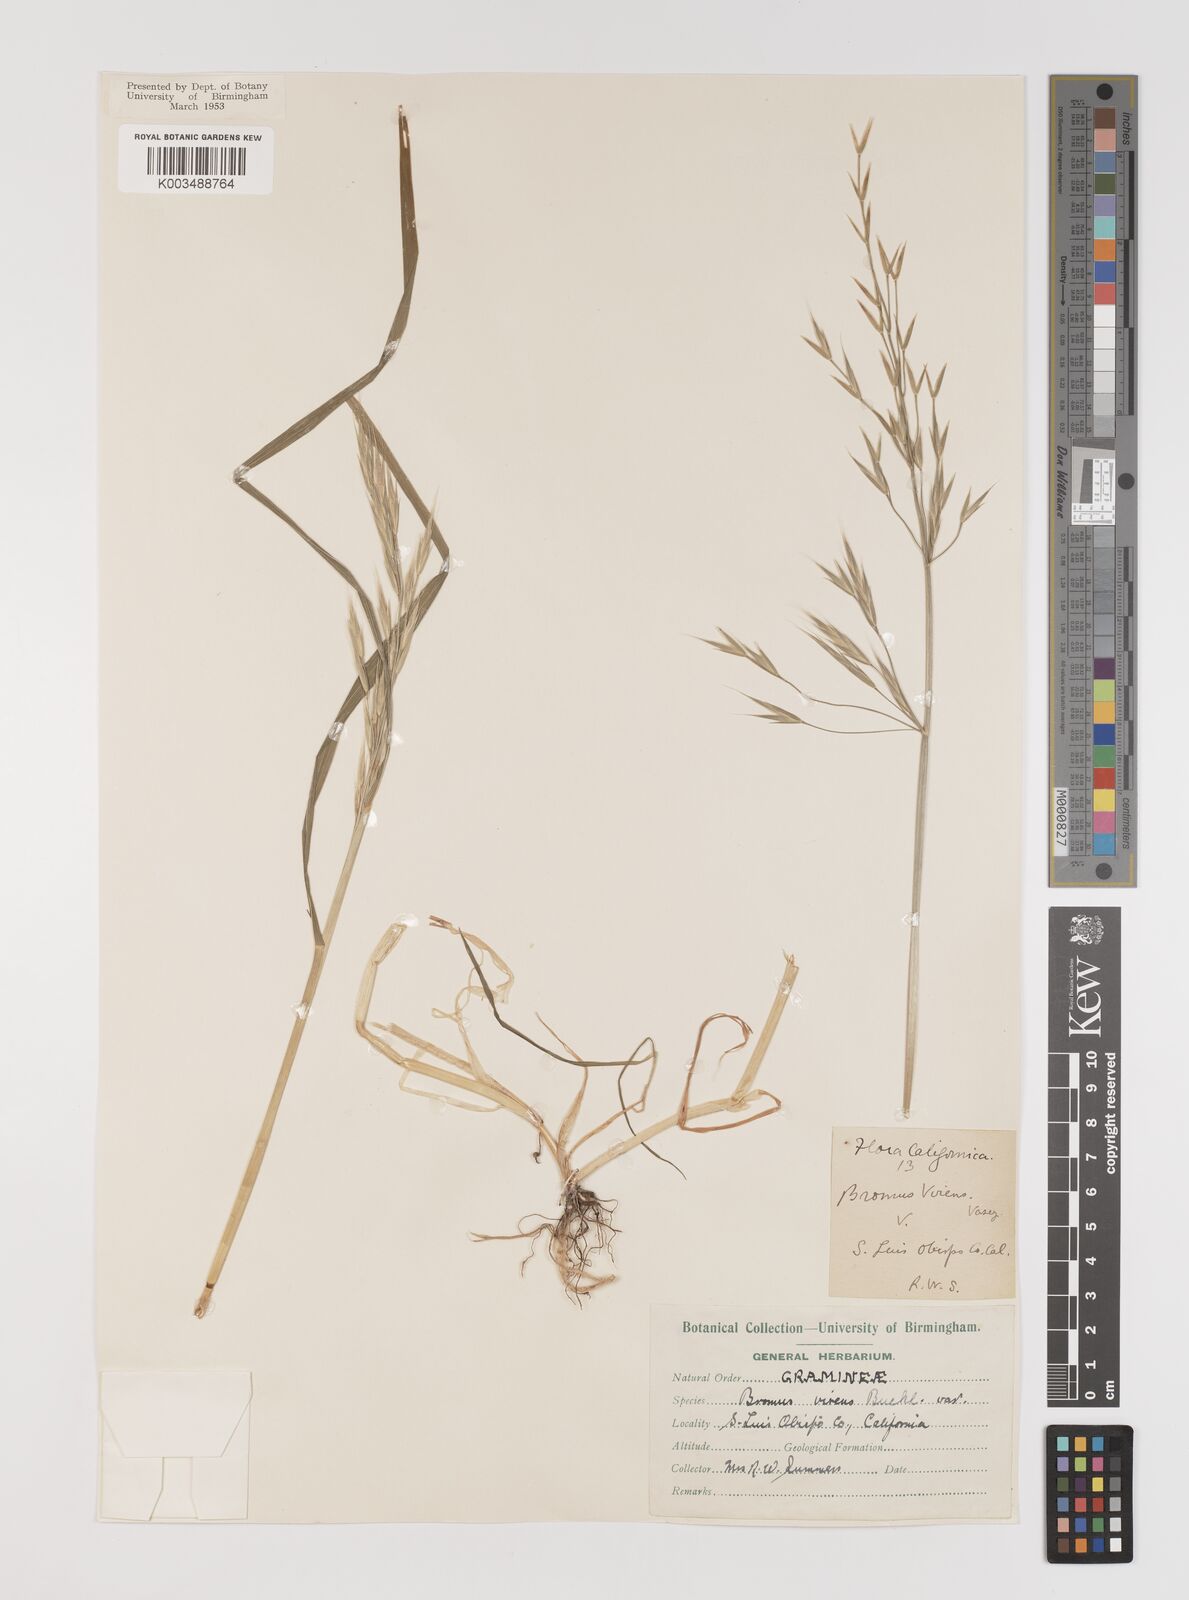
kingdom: Plantae
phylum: Tracheophyta
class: Liliopsida
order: Poales
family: Poaceae
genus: Bromus
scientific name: Bromus
